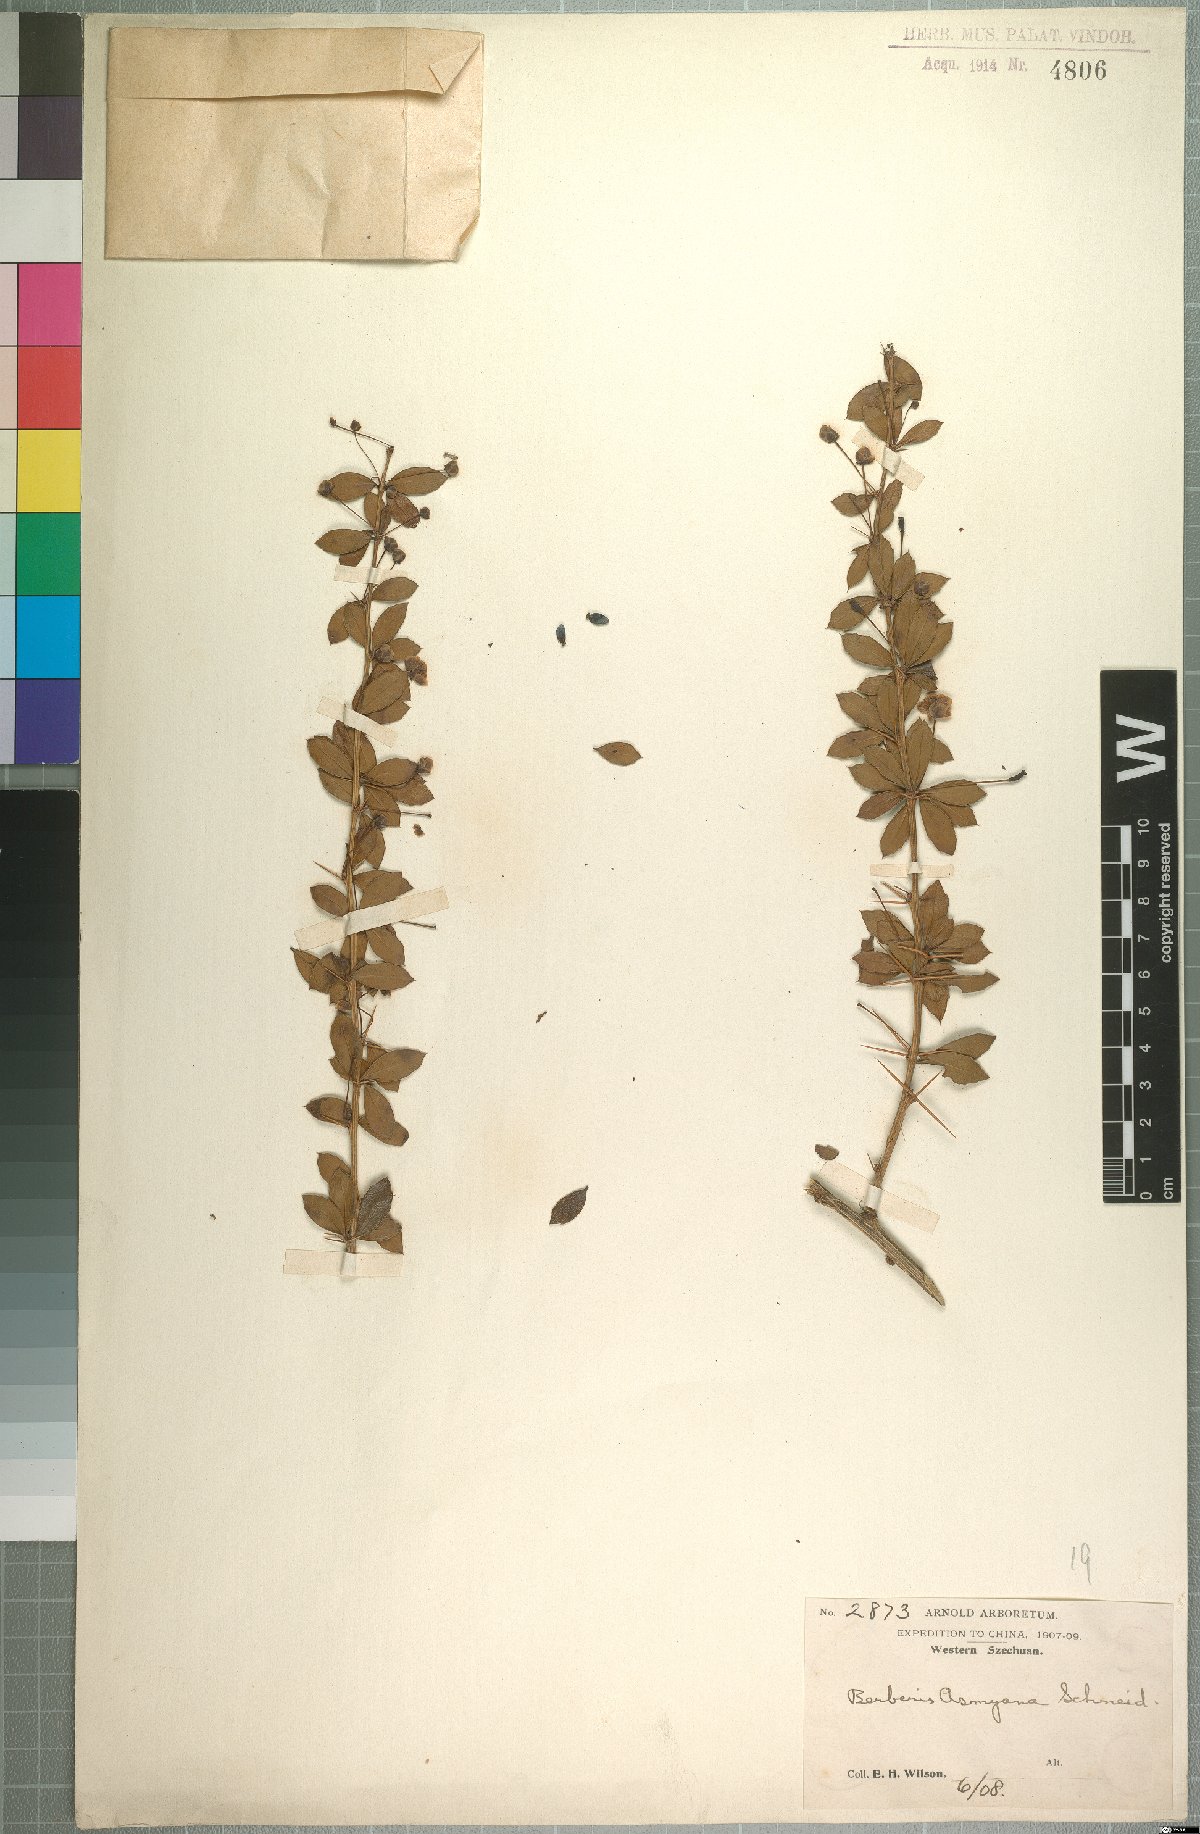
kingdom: Plantae
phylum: Tracheophyta
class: Magnoliopsida
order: Ranunculales
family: Berberidaceae
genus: Berberis
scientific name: Berberis asmyana
